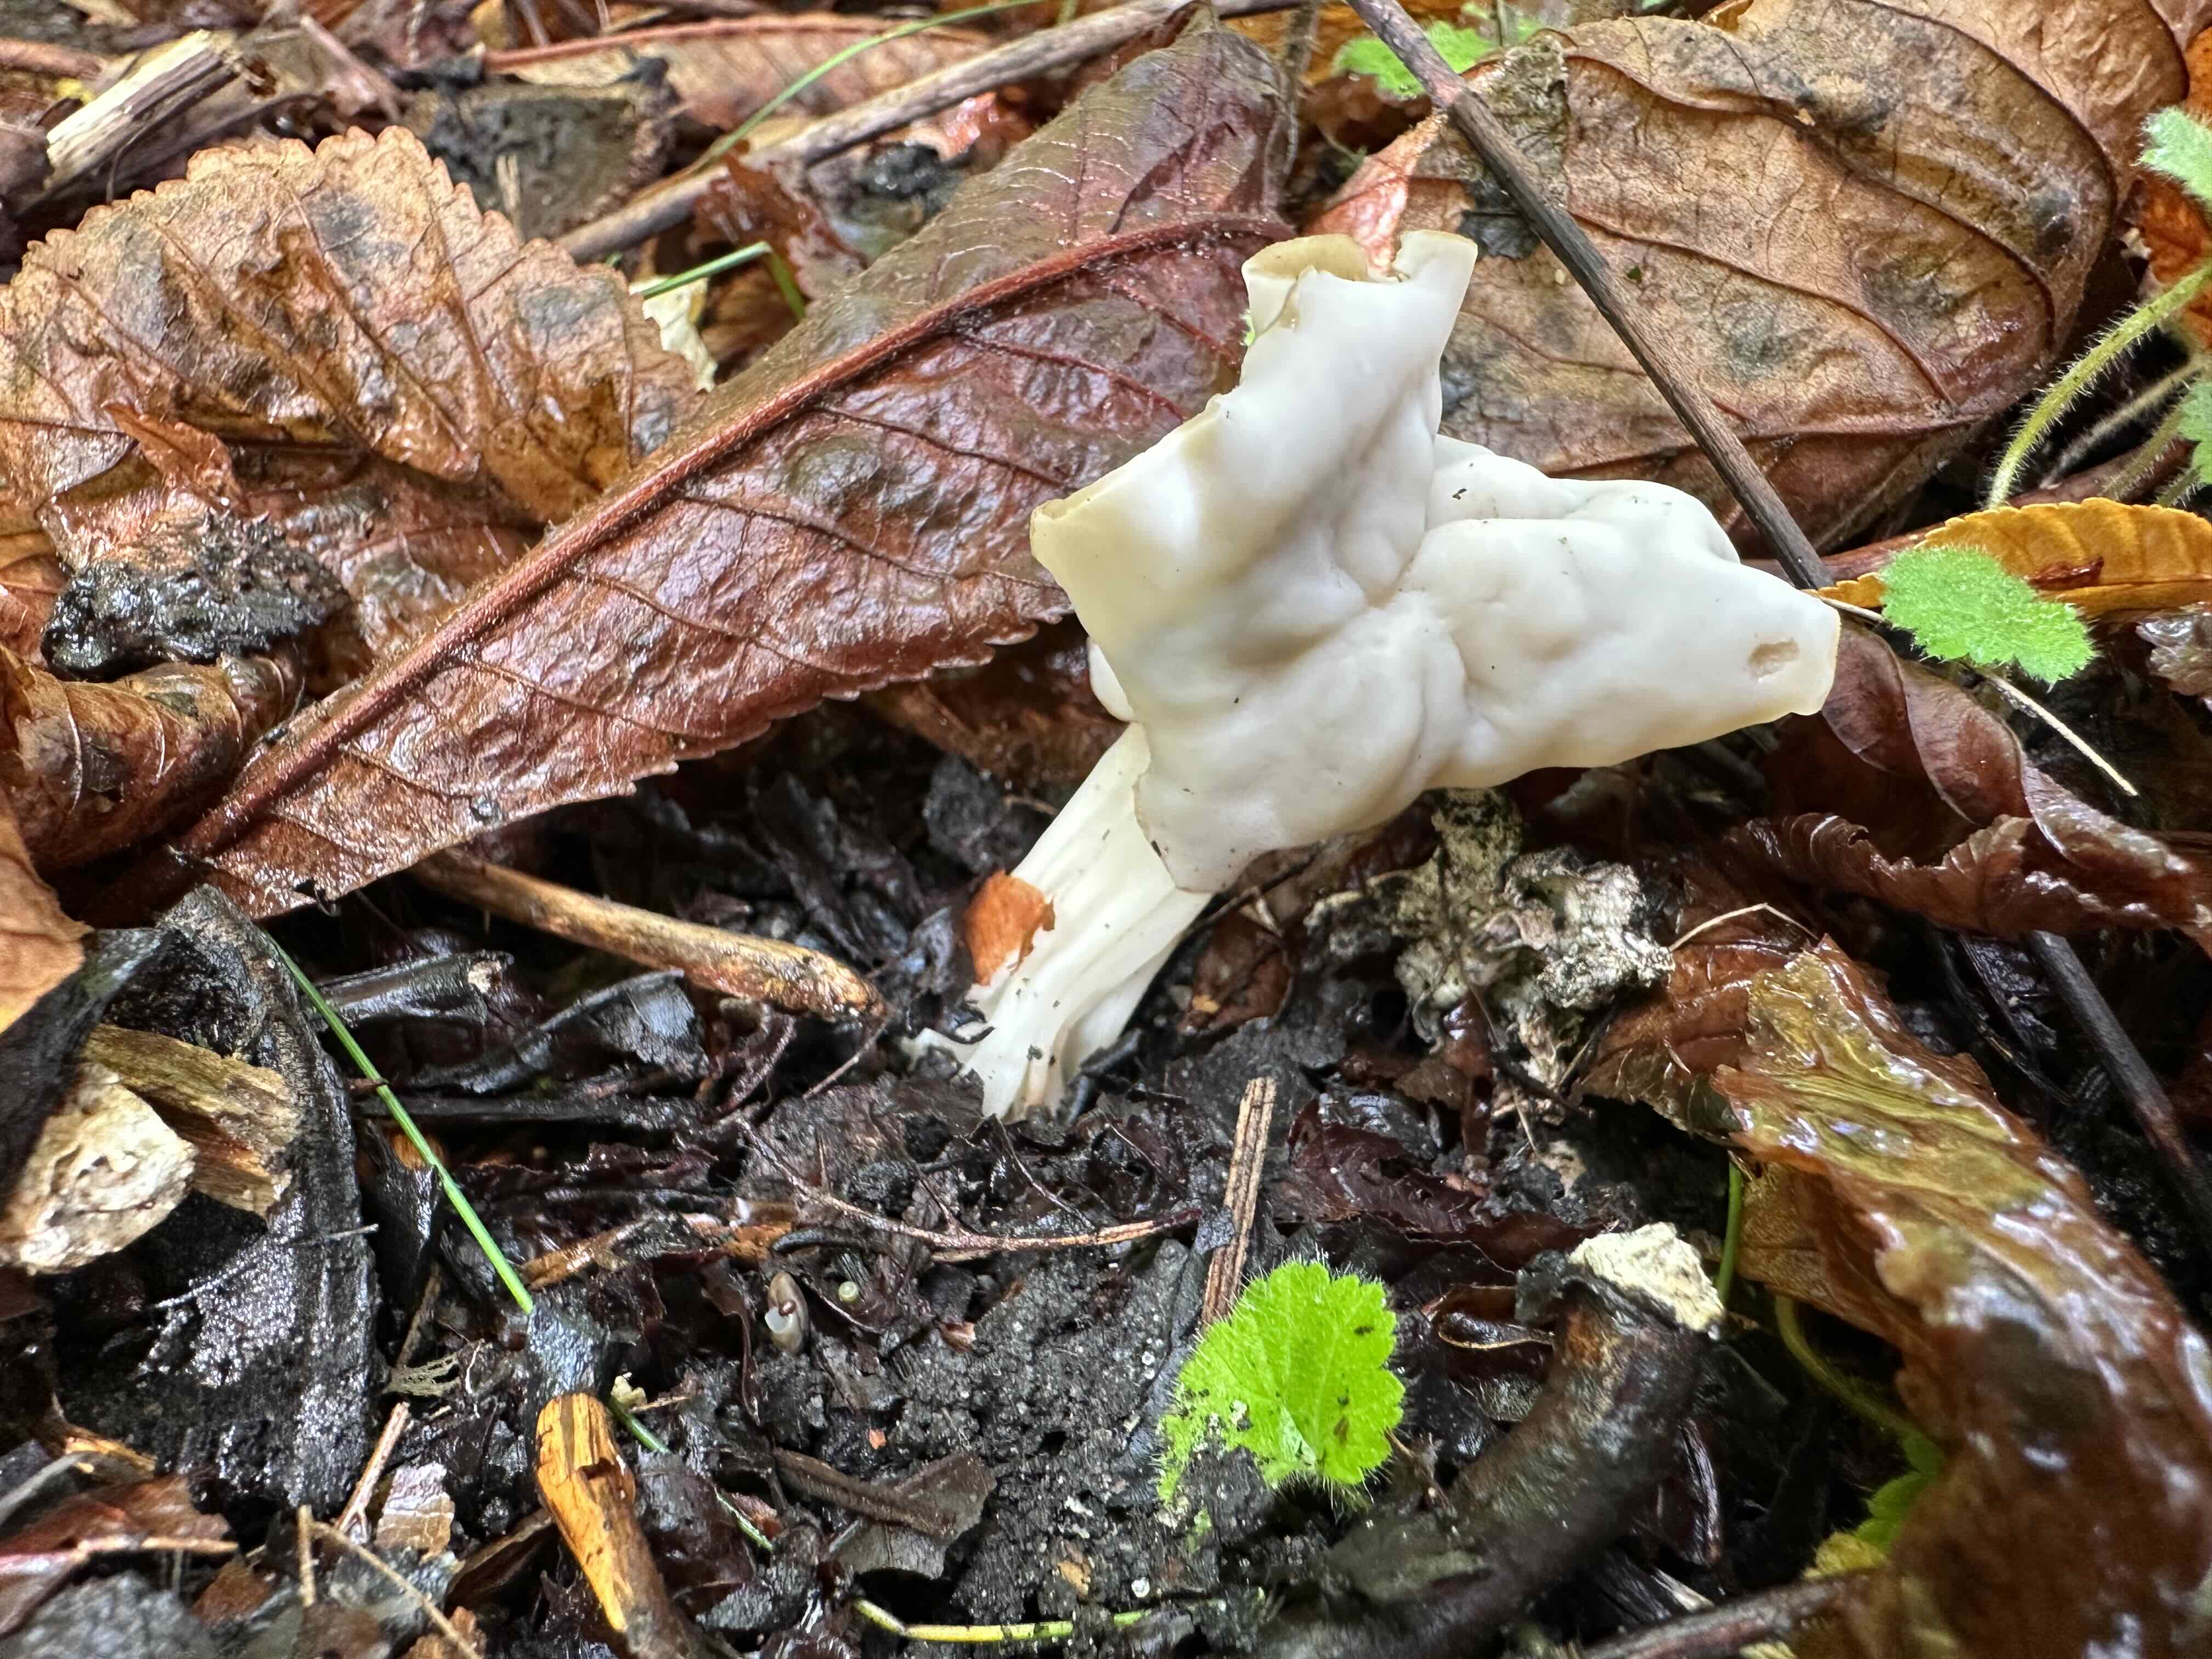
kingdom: Fungi
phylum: Ascomycota
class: Pezizomycetes
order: Pezizales
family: Helvellaceae
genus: Helvella
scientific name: Helvella crispa
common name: kruset foldhat
